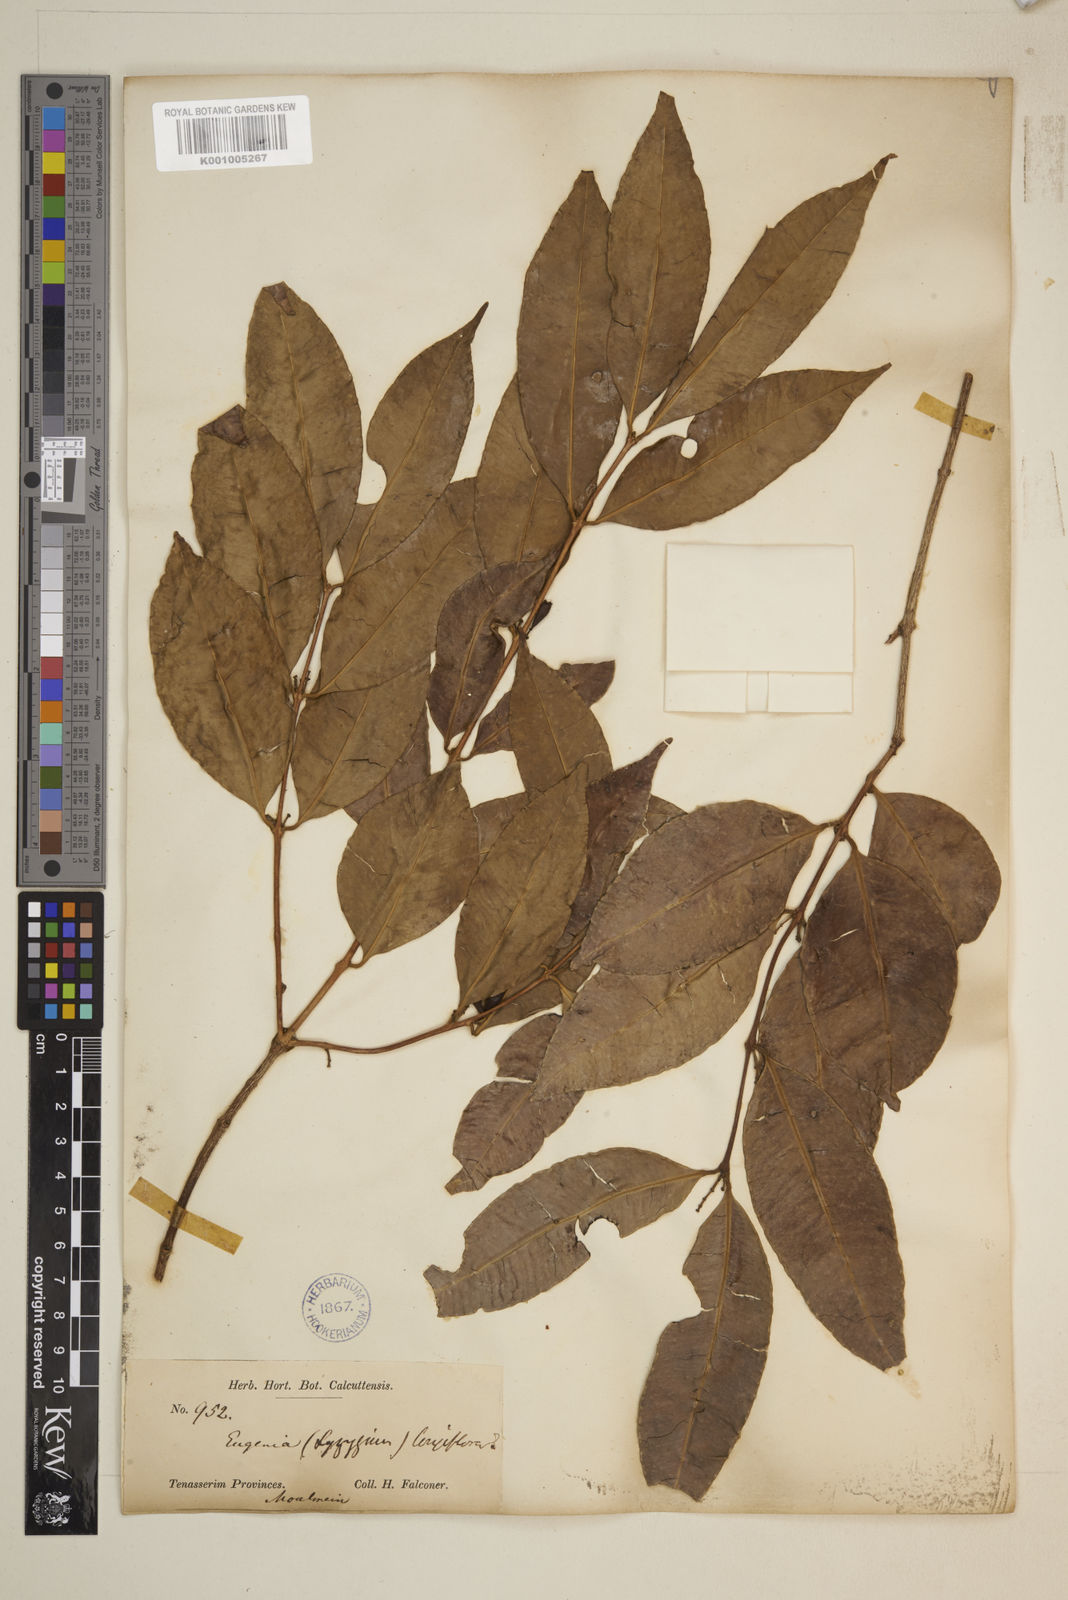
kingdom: Plantae
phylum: Tracheophyta
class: Magnoliopsida
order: Myrtales
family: Myrtaceae
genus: Syzygium
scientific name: Syzygium claviflorum
